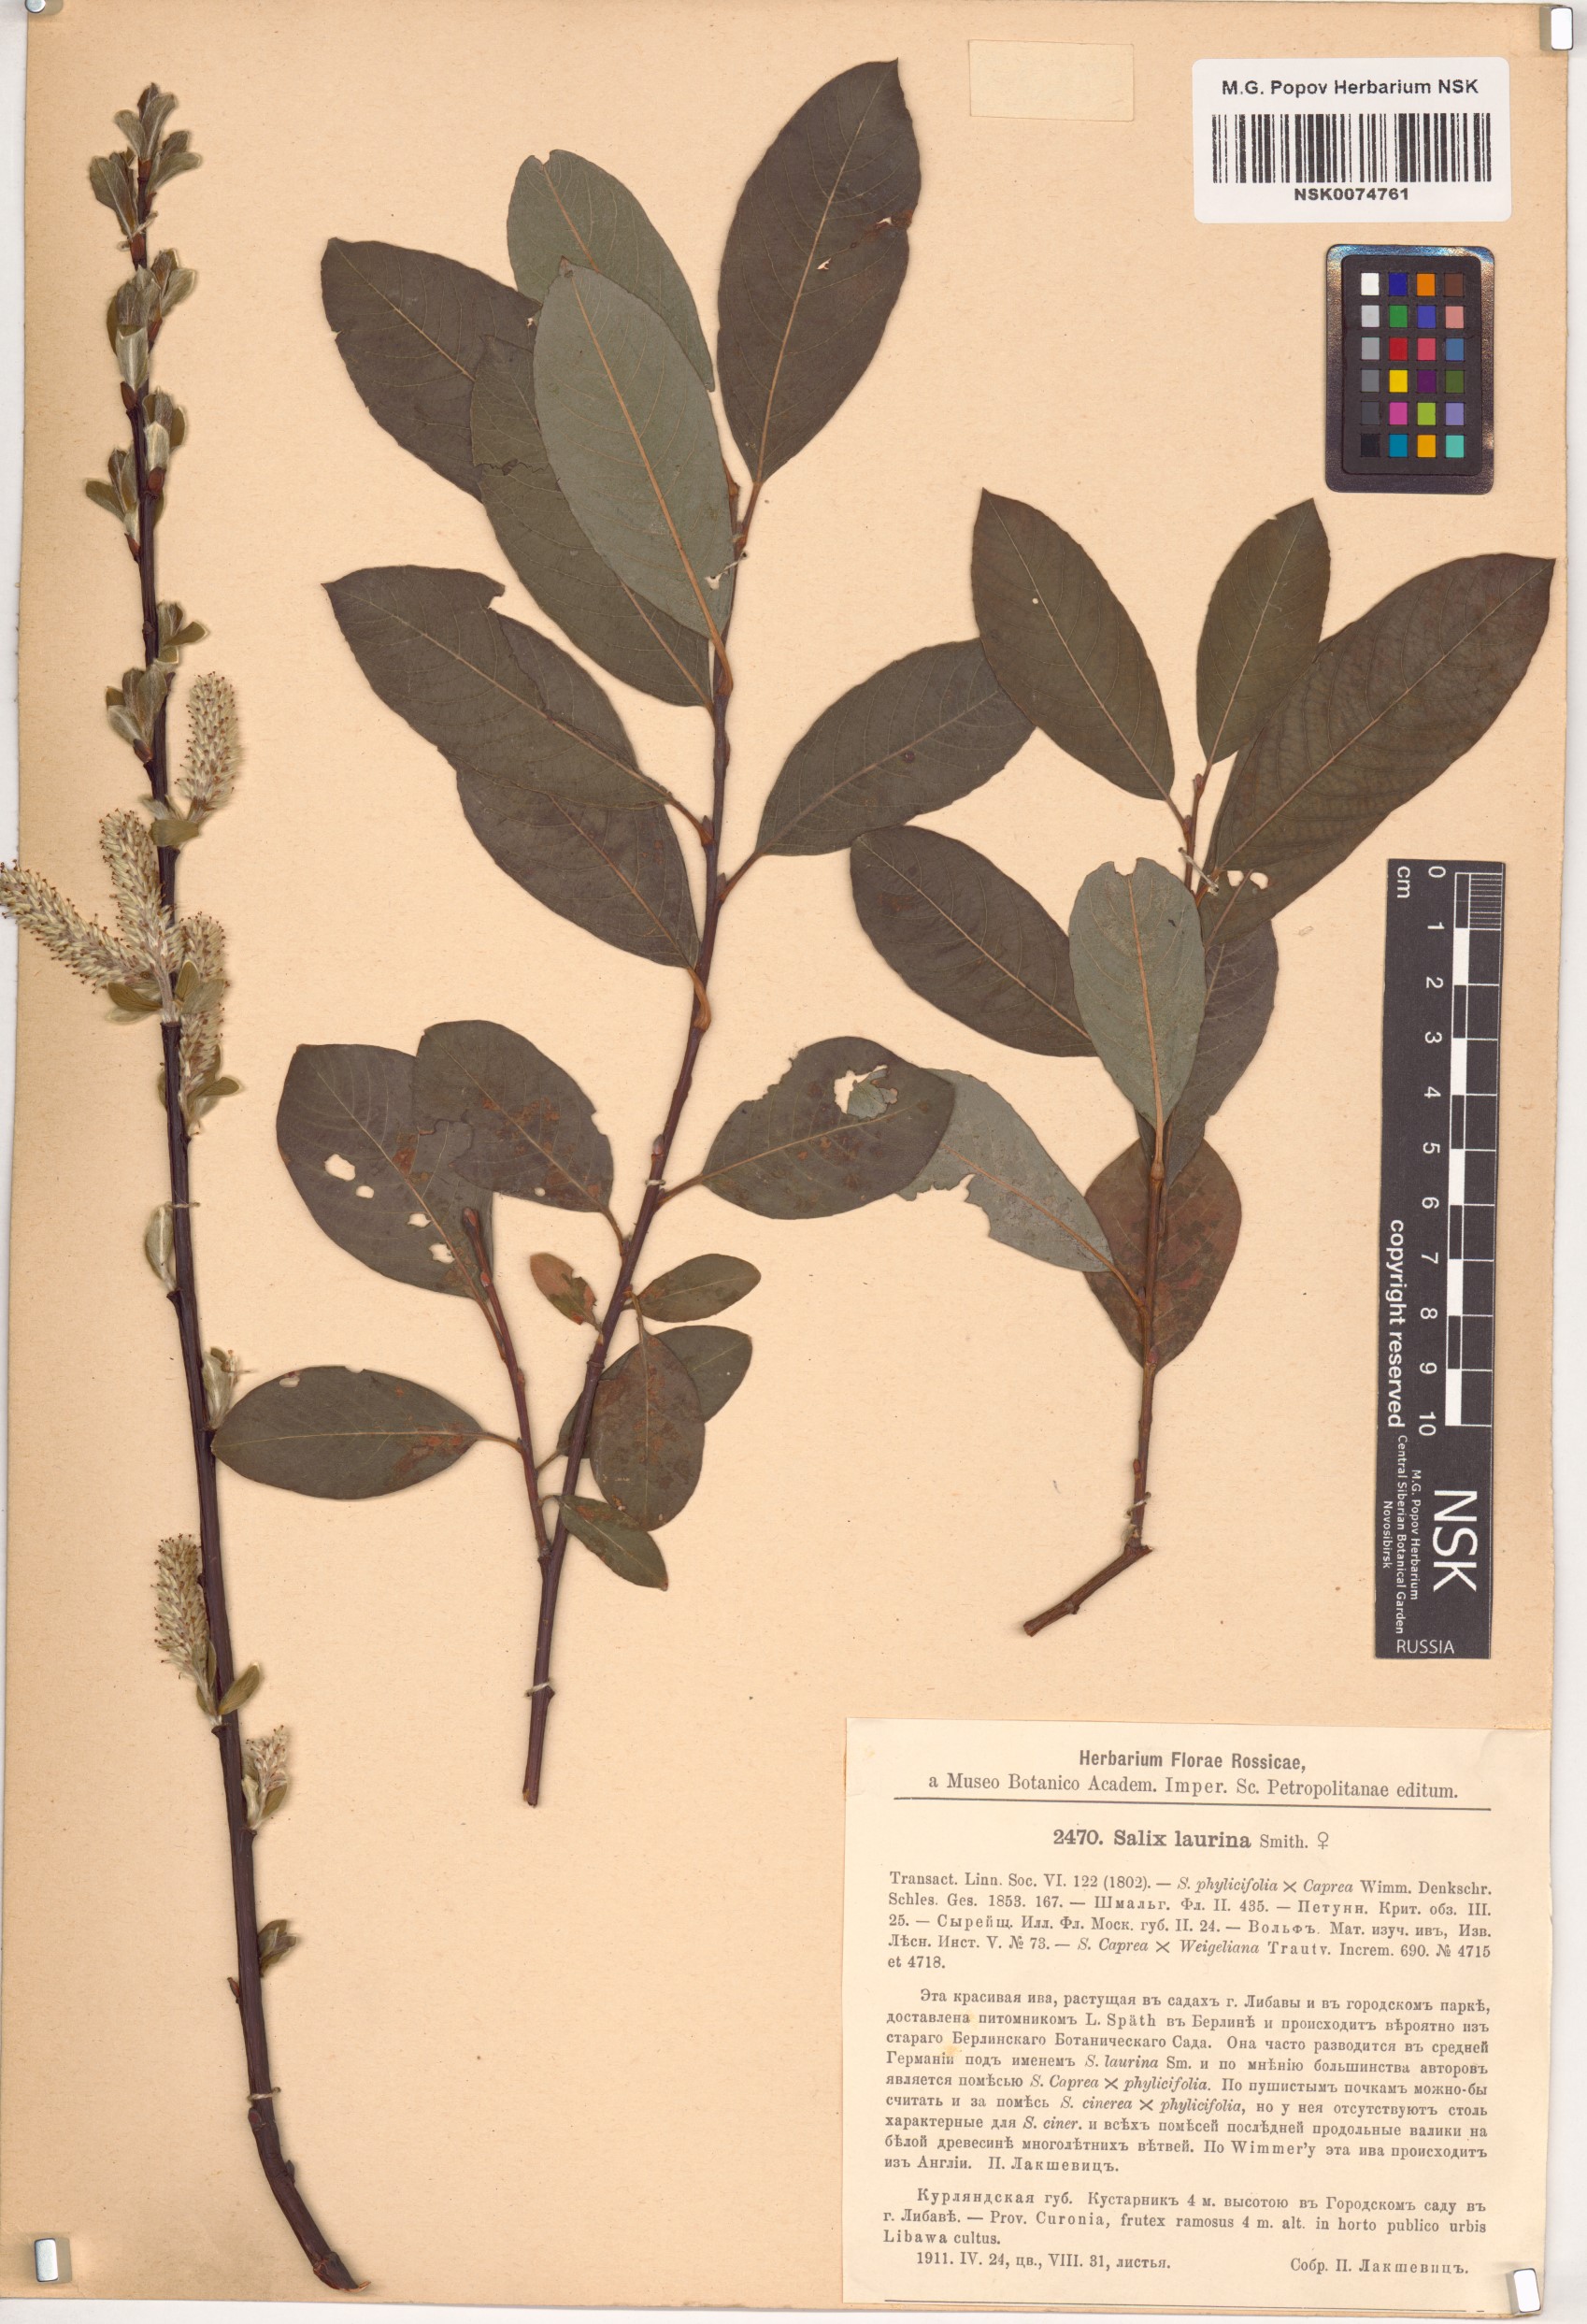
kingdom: Plantae
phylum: Tracheophyta
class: Magnoliopsida
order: Malpighiales
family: Salicaceae
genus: Salix
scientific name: Salix laurina
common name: Laurel-leaf willow
